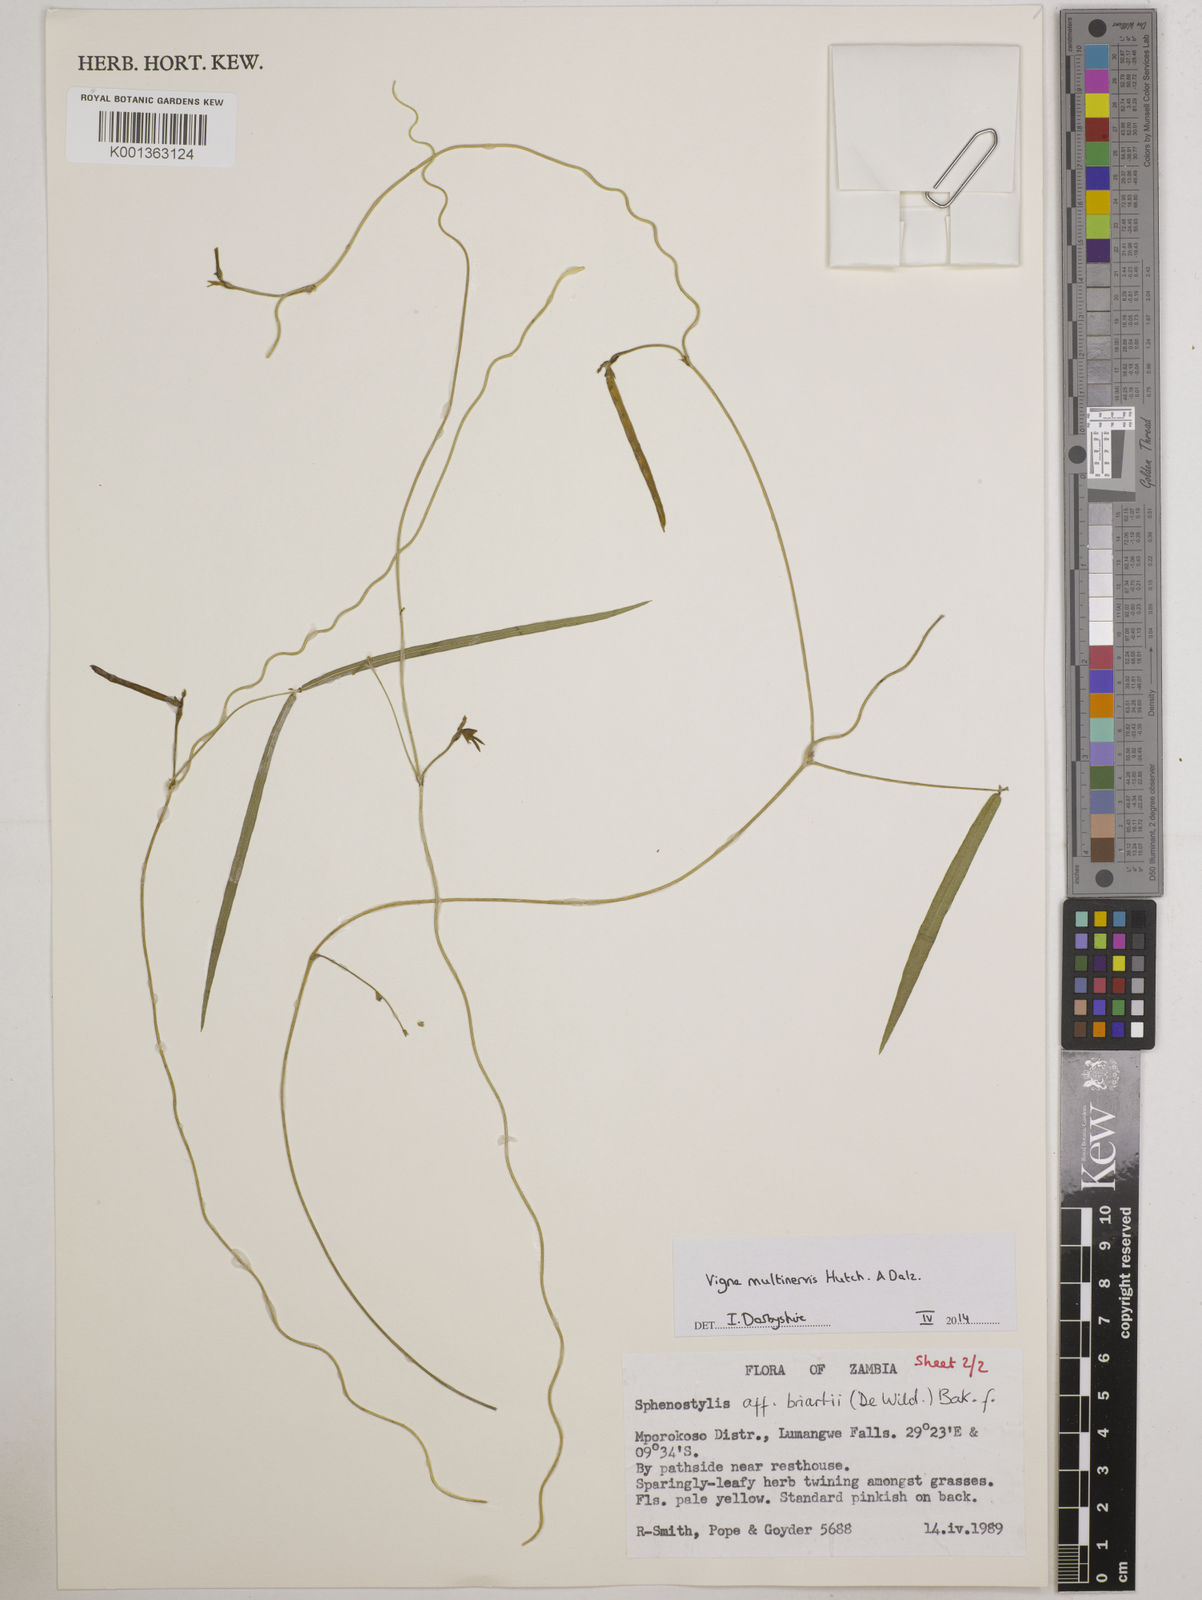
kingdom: Plantae
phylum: Tracheophyta
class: Magnoliopsida
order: Fabales
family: Fabaceae
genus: Vigna
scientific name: Vigna multinervis
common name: Fula-pulaar
